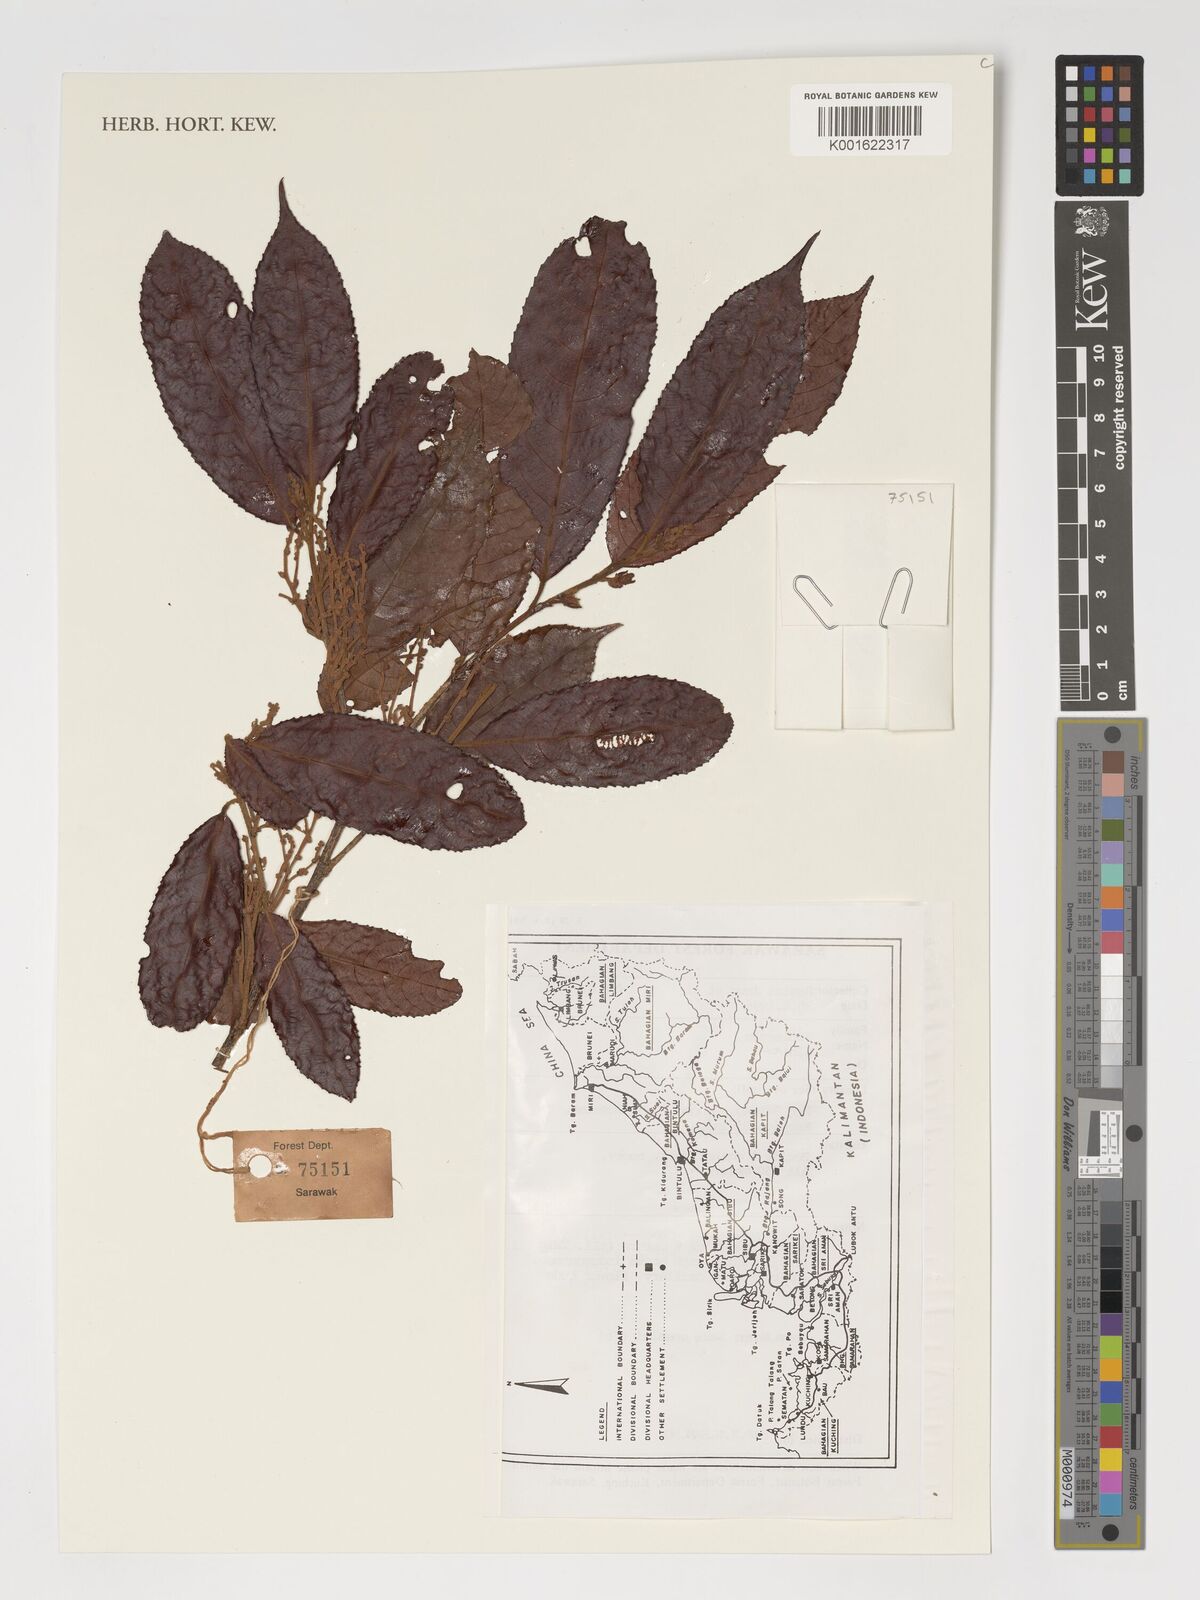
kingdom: Plantae
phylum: Tracheophyta
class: Magnoliopsida
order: Malpighiales
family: Violaceae
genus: Rinorea
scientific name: Rinorea
